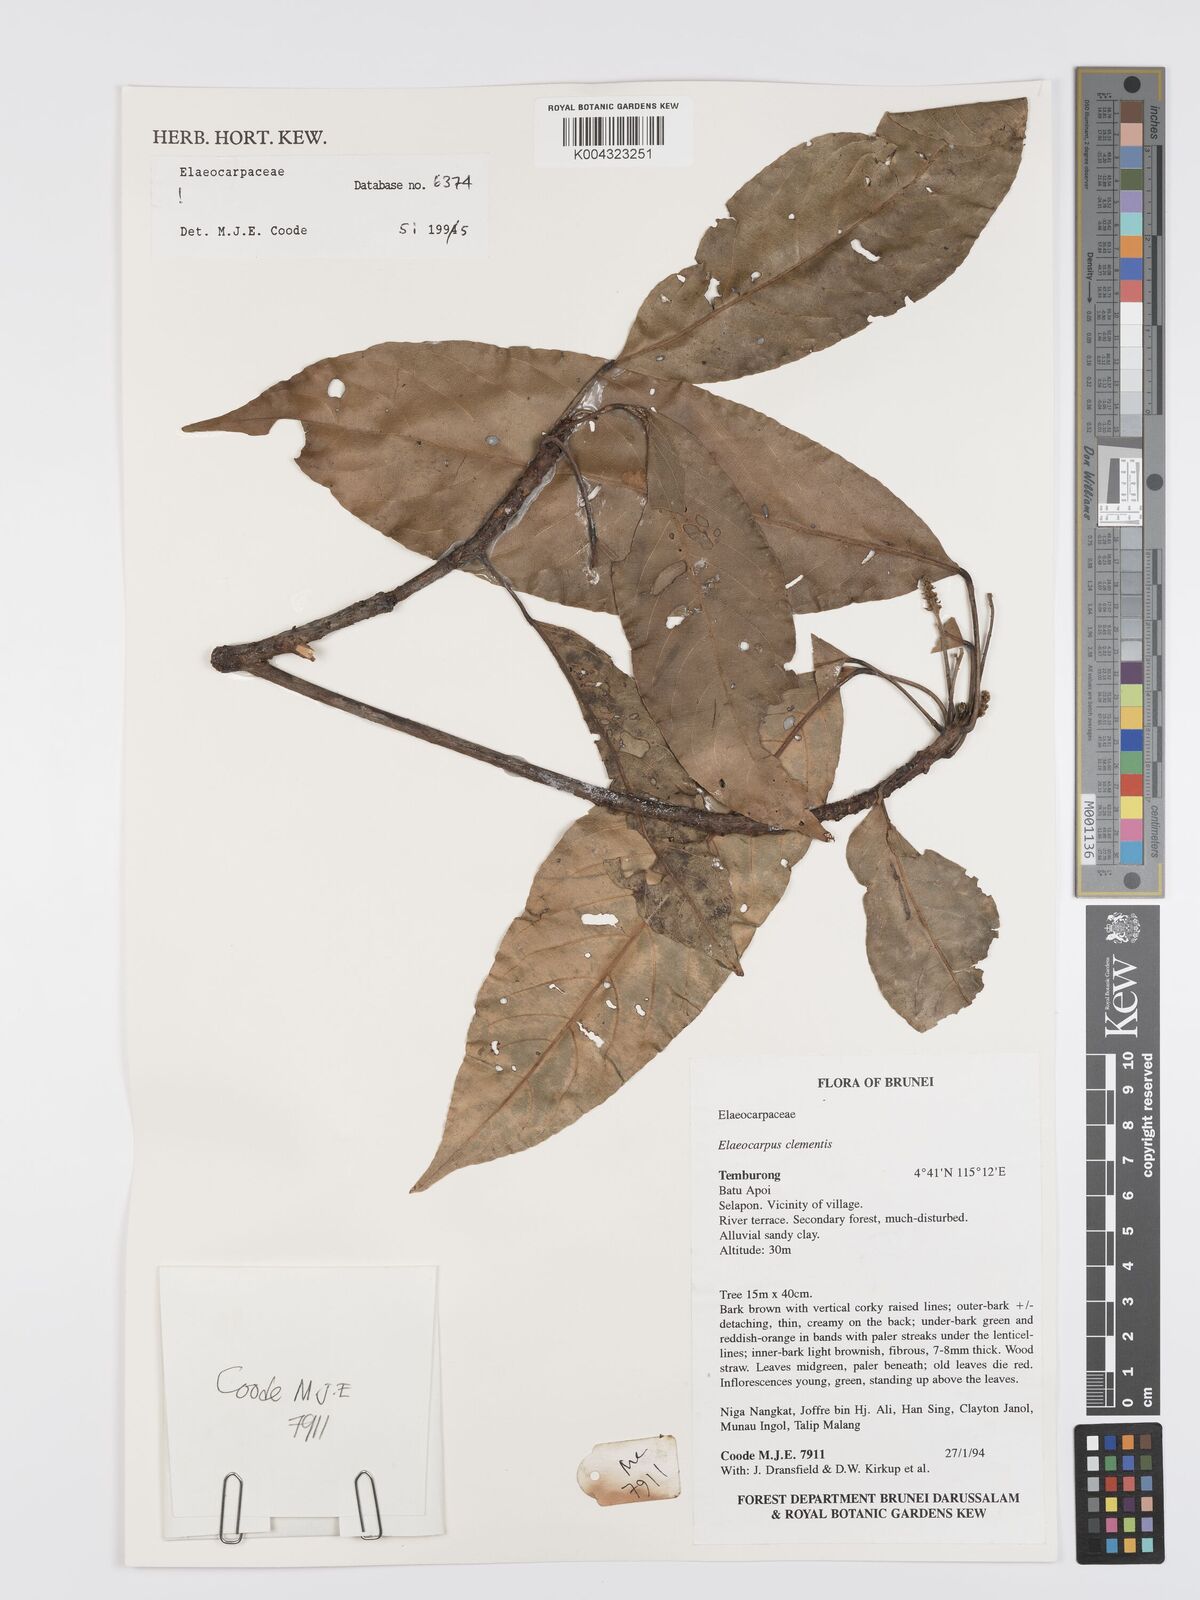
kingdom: Plantae
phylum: Tracheophyta
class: Magnoliopsida
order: Oxalidales
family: Elaeocarpaceae
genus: Elaeocarpus
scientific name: Elaeocarpus clementis
